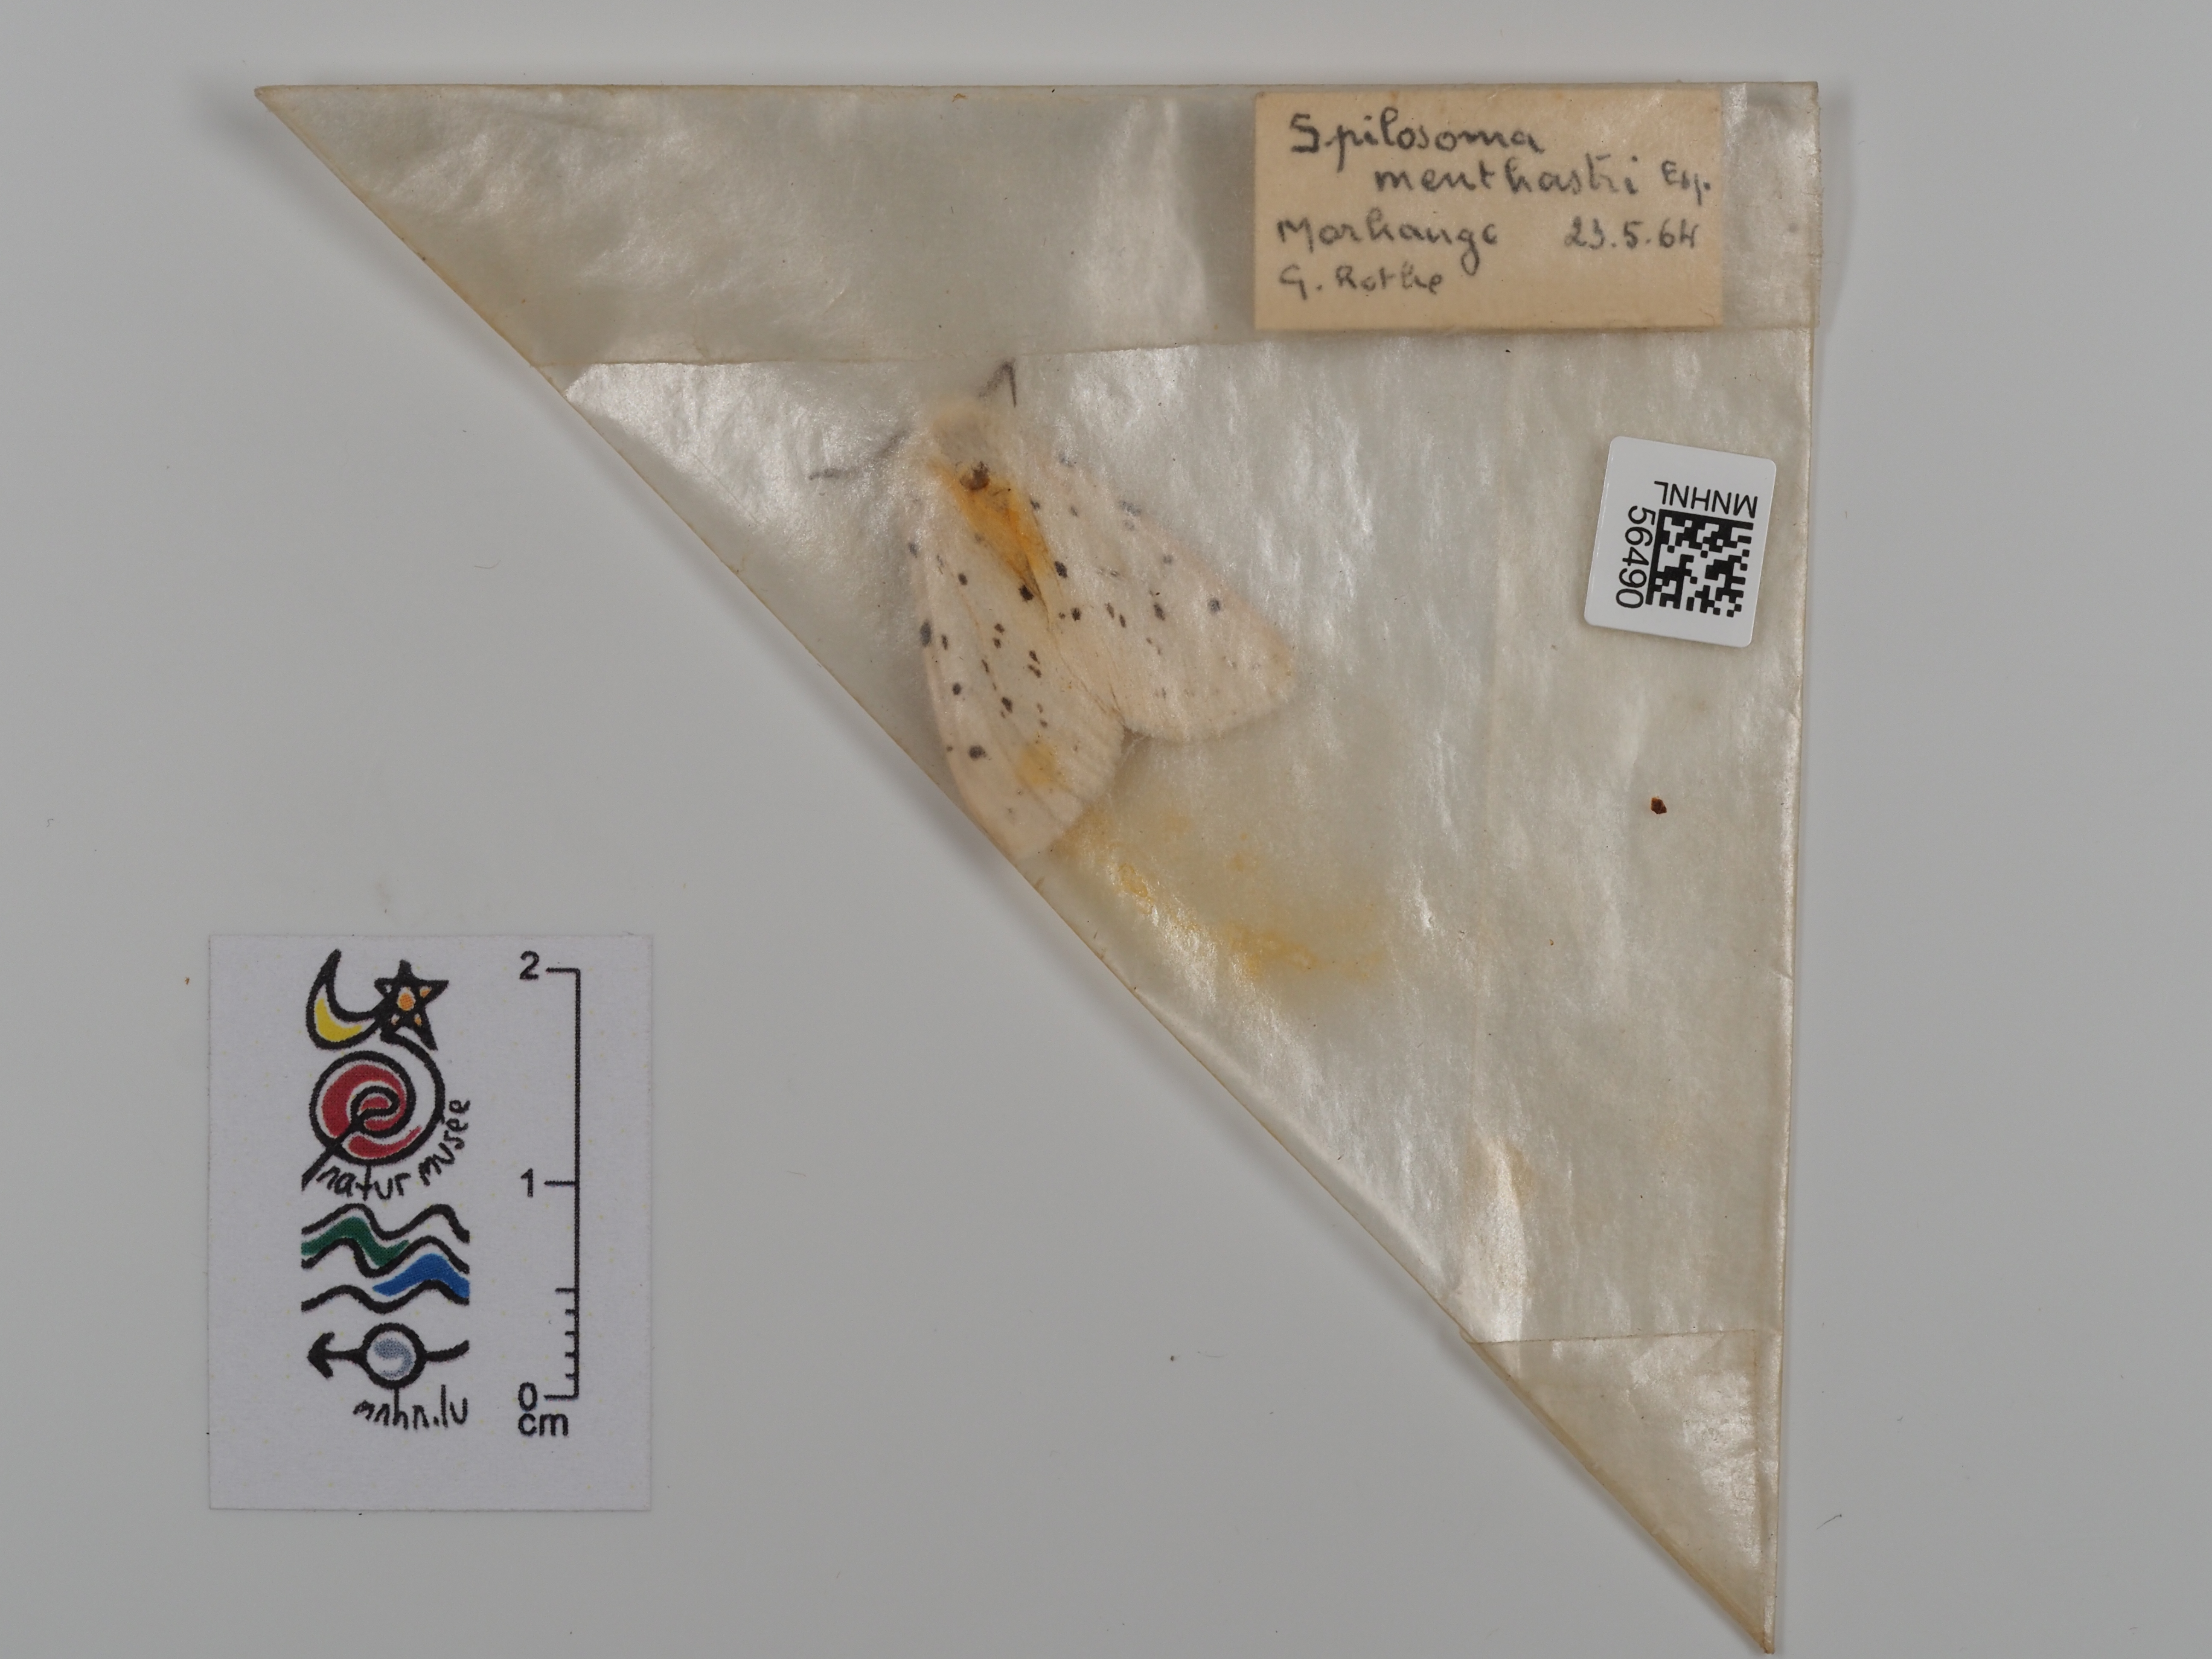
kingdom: Animalia
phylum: Arthropoda
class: Insecta
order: Lepidoptera
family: Erebidae
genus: Spilosoma
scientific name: Spilosoma lubricipeda
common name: White ermine
